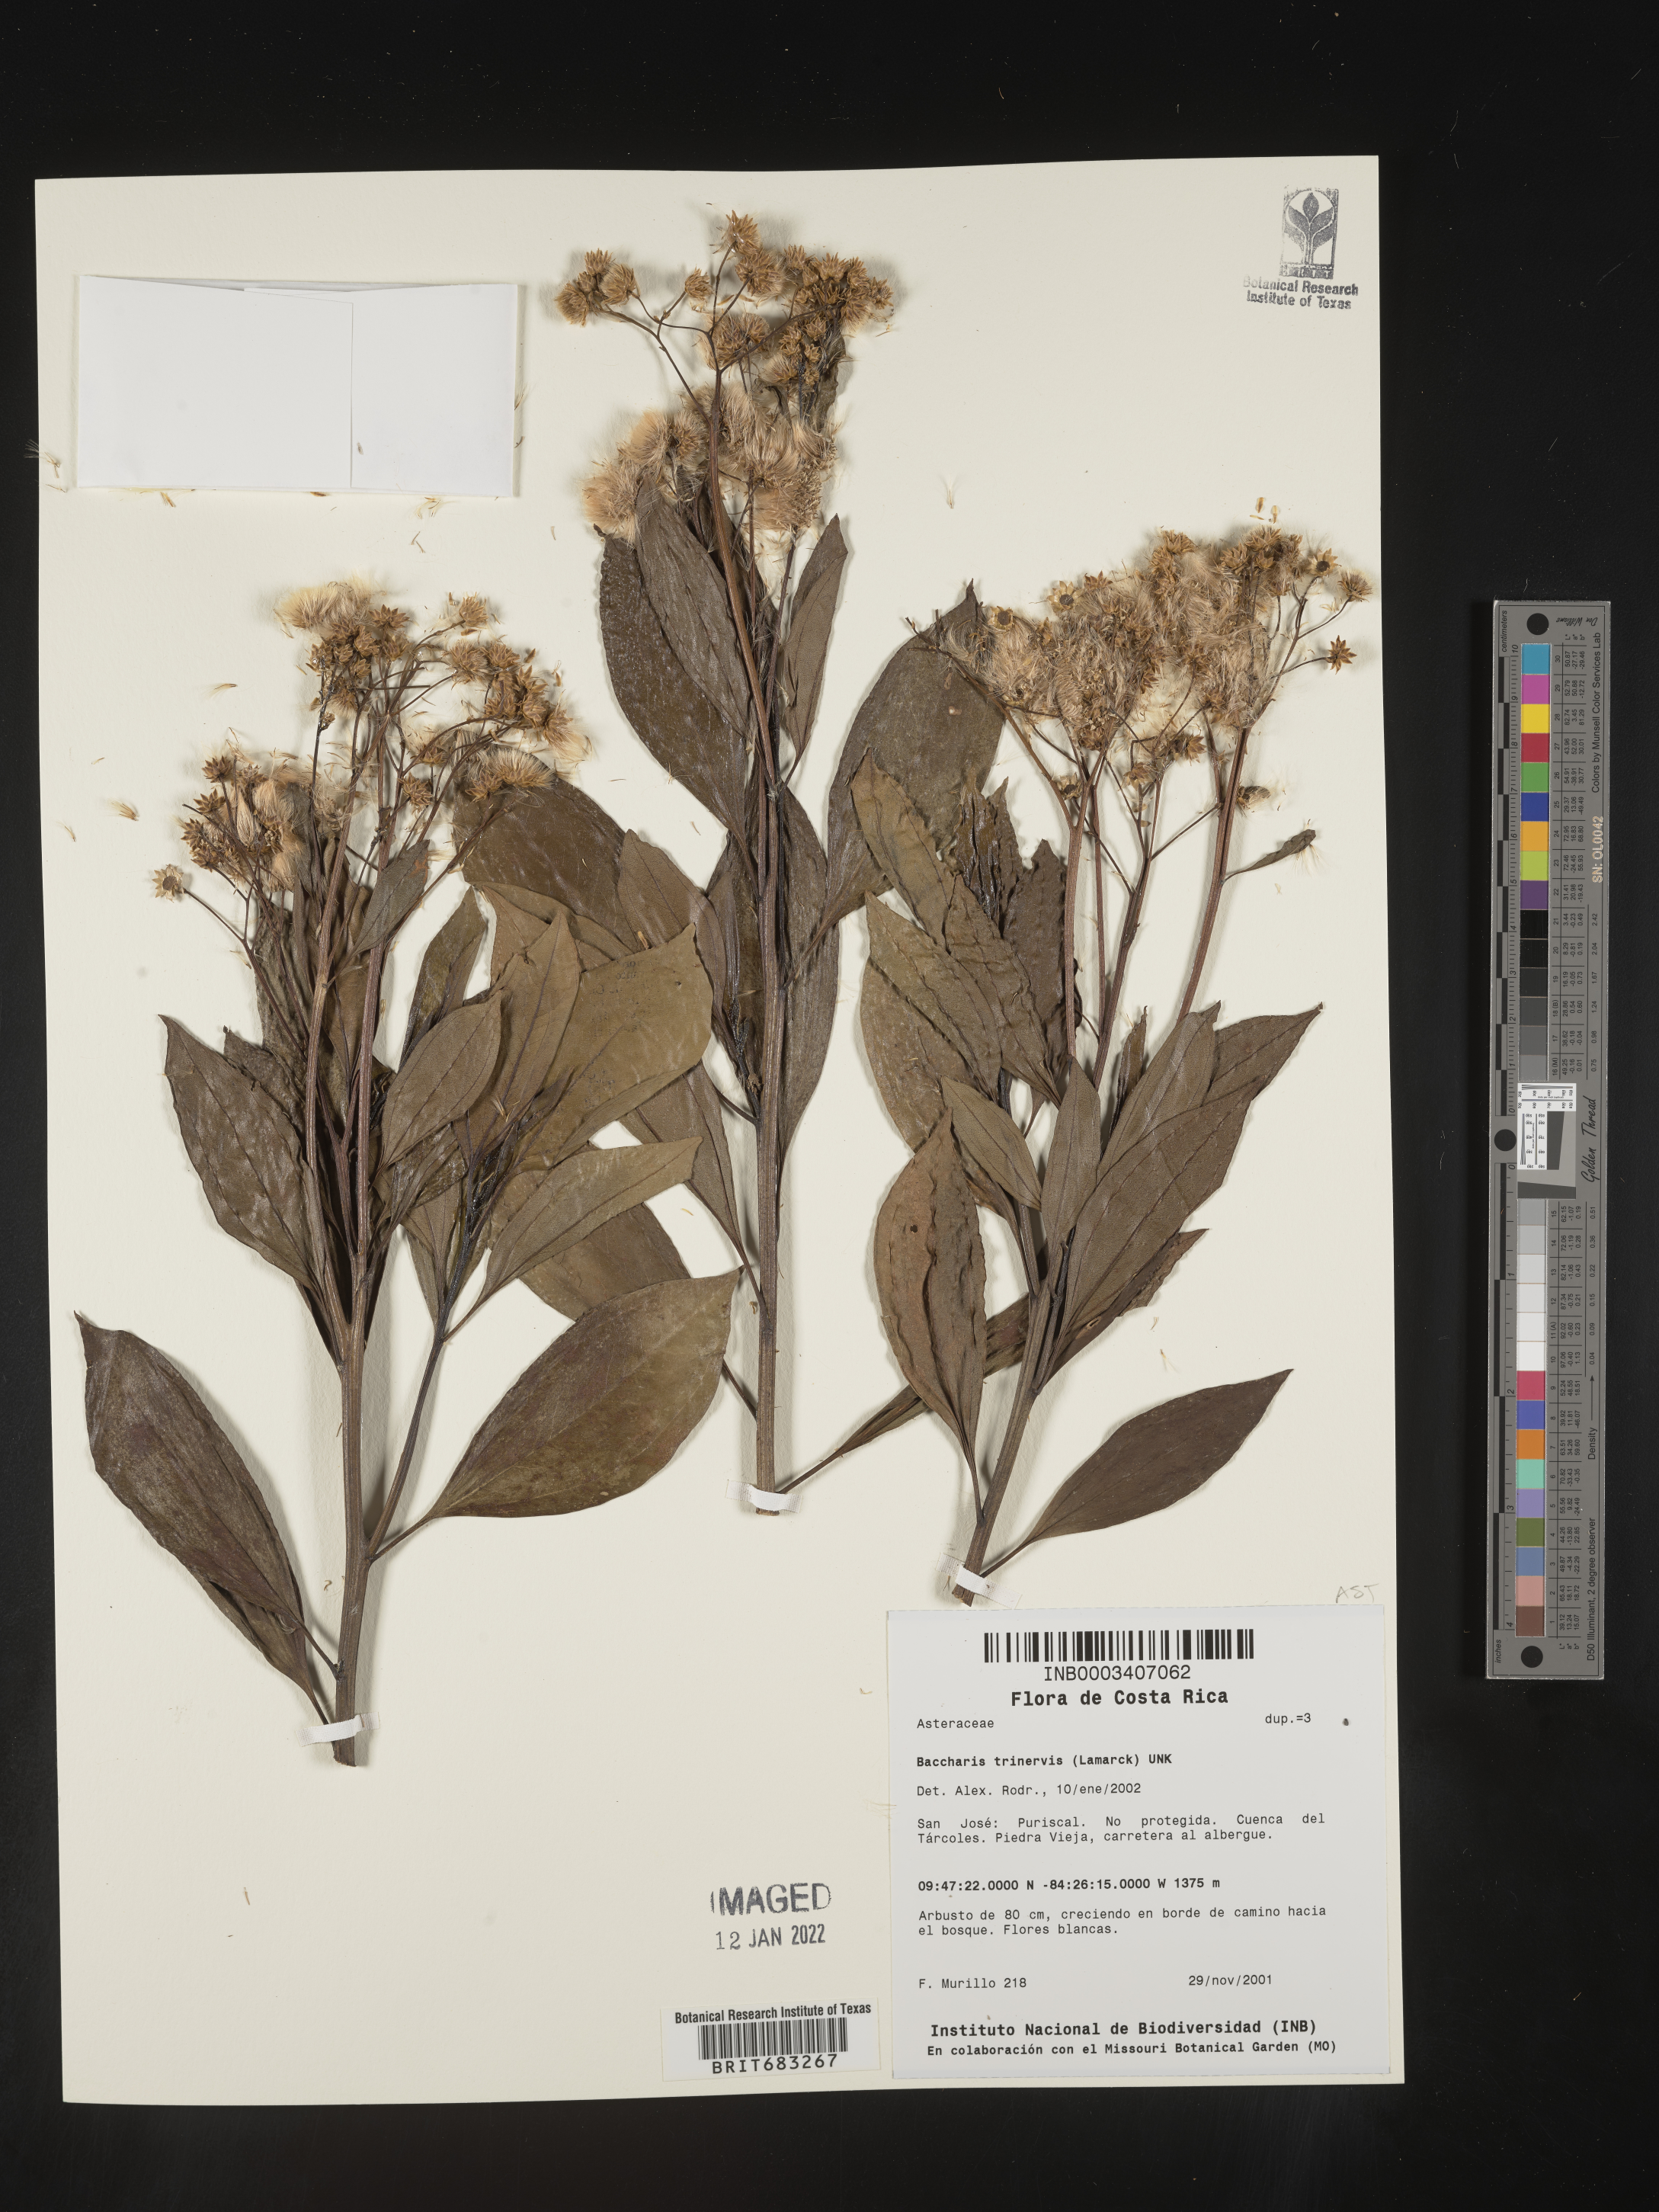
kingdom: Plantae
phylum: Tracheophyta
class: Magnoliopsida
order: Asterales
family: Asteraceae
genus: Baccharis
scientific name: Baccharis trinervis
